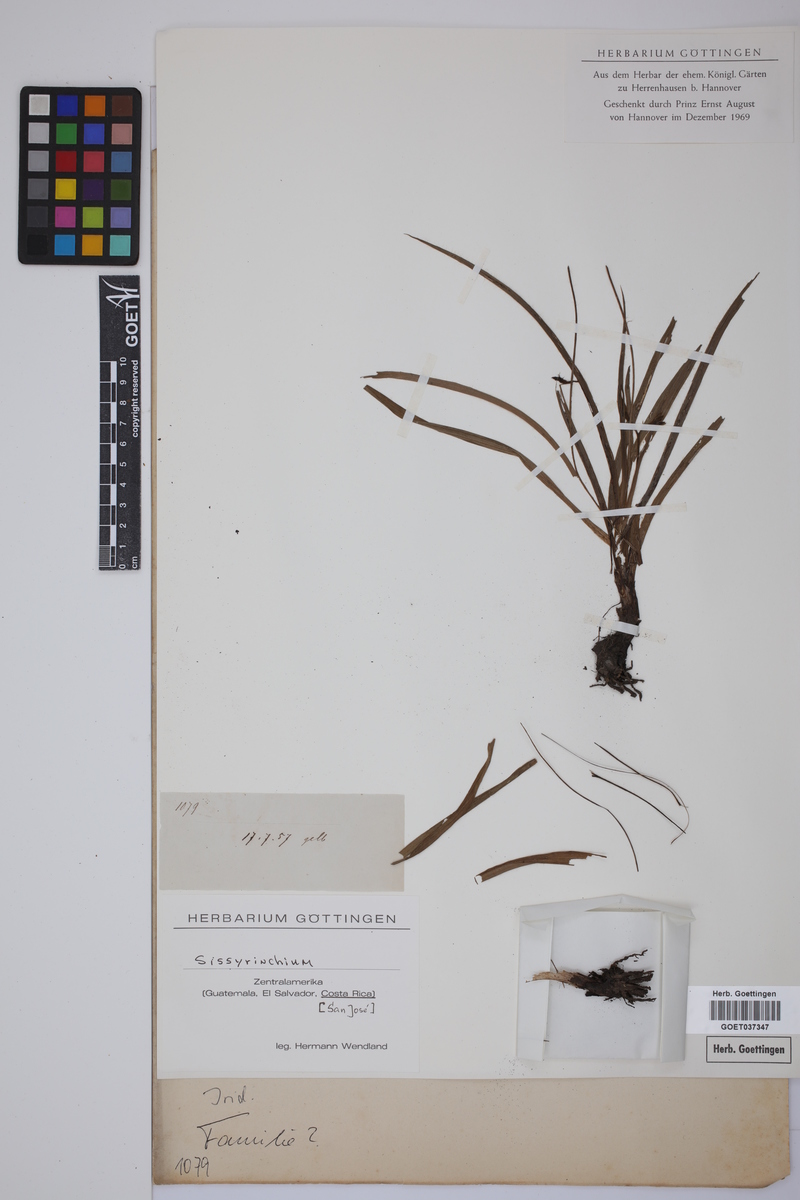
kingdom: Plantae
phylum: Tracheophyta
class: Liliopsida
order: Asparagales
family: Iridaceae
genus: Sisyrinchium
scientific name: Sisyrinchium
